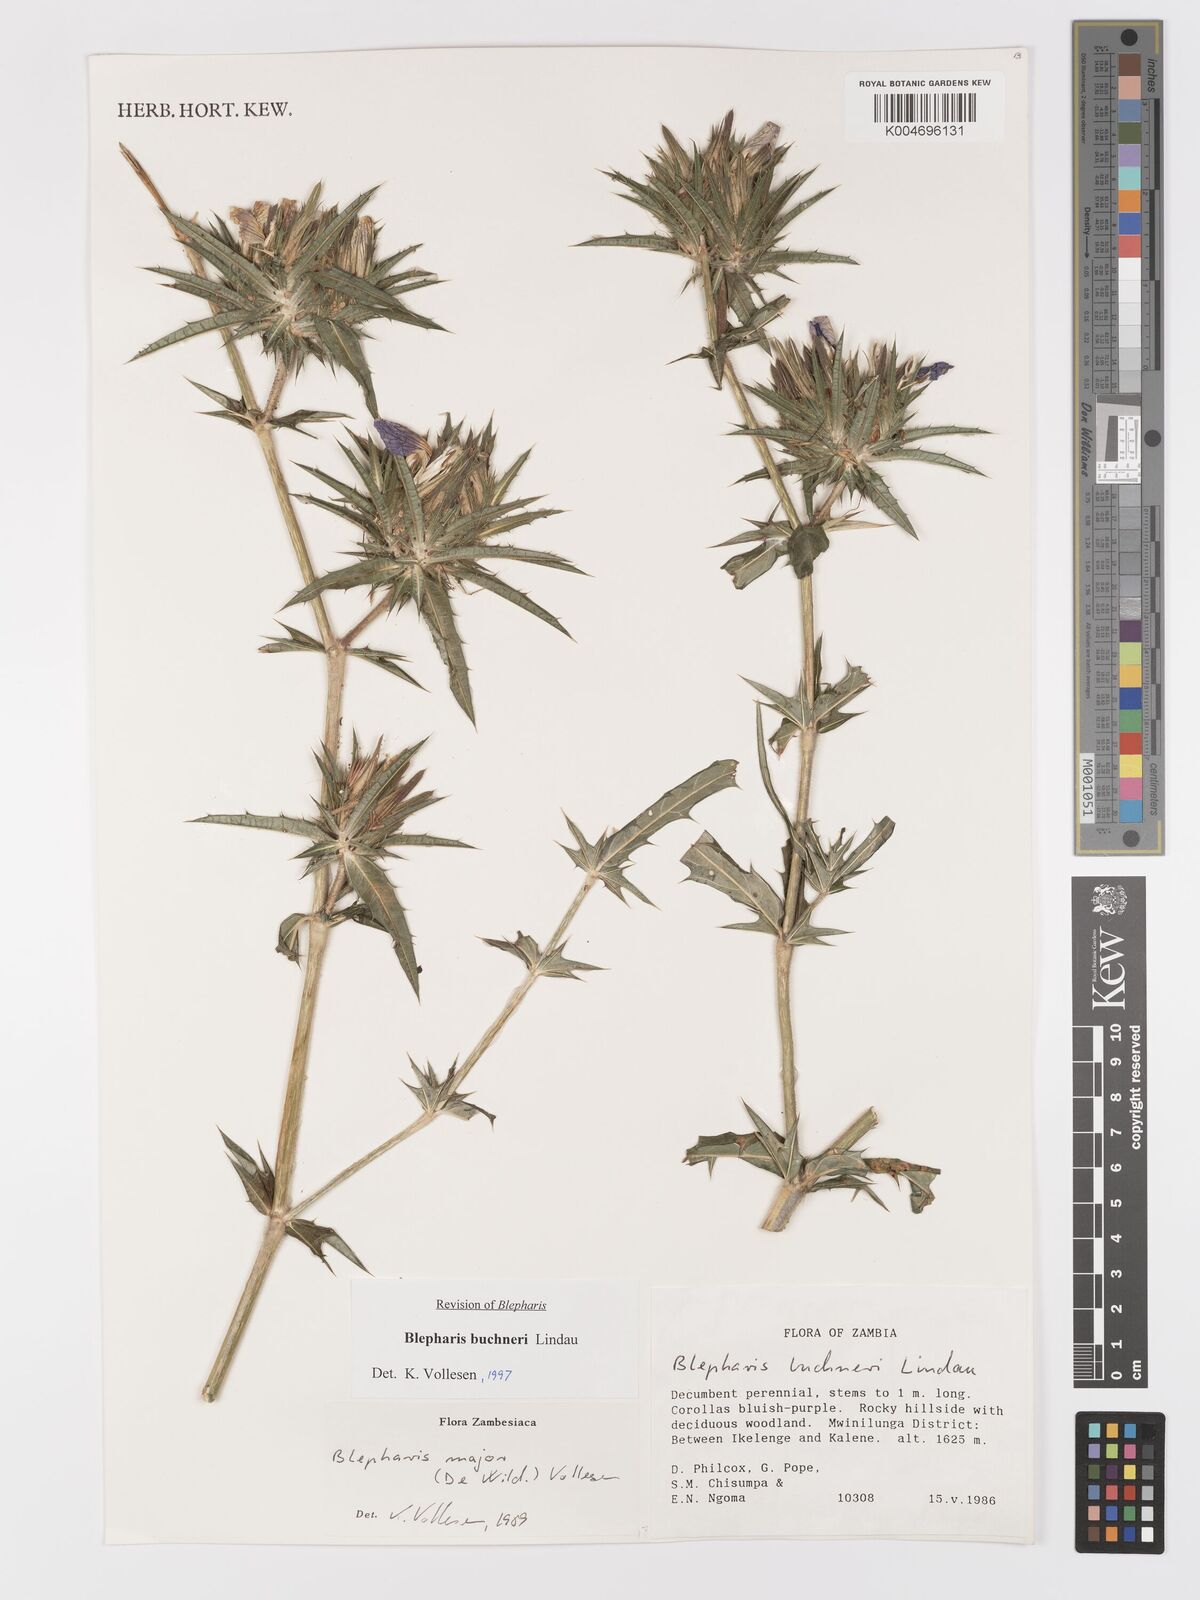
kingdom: Plantae
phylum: Tracheophyta
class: Magnoliopsida
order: Lamiales
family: Acanthaceae
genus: Blepharis
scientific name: Blepharis buchneri
